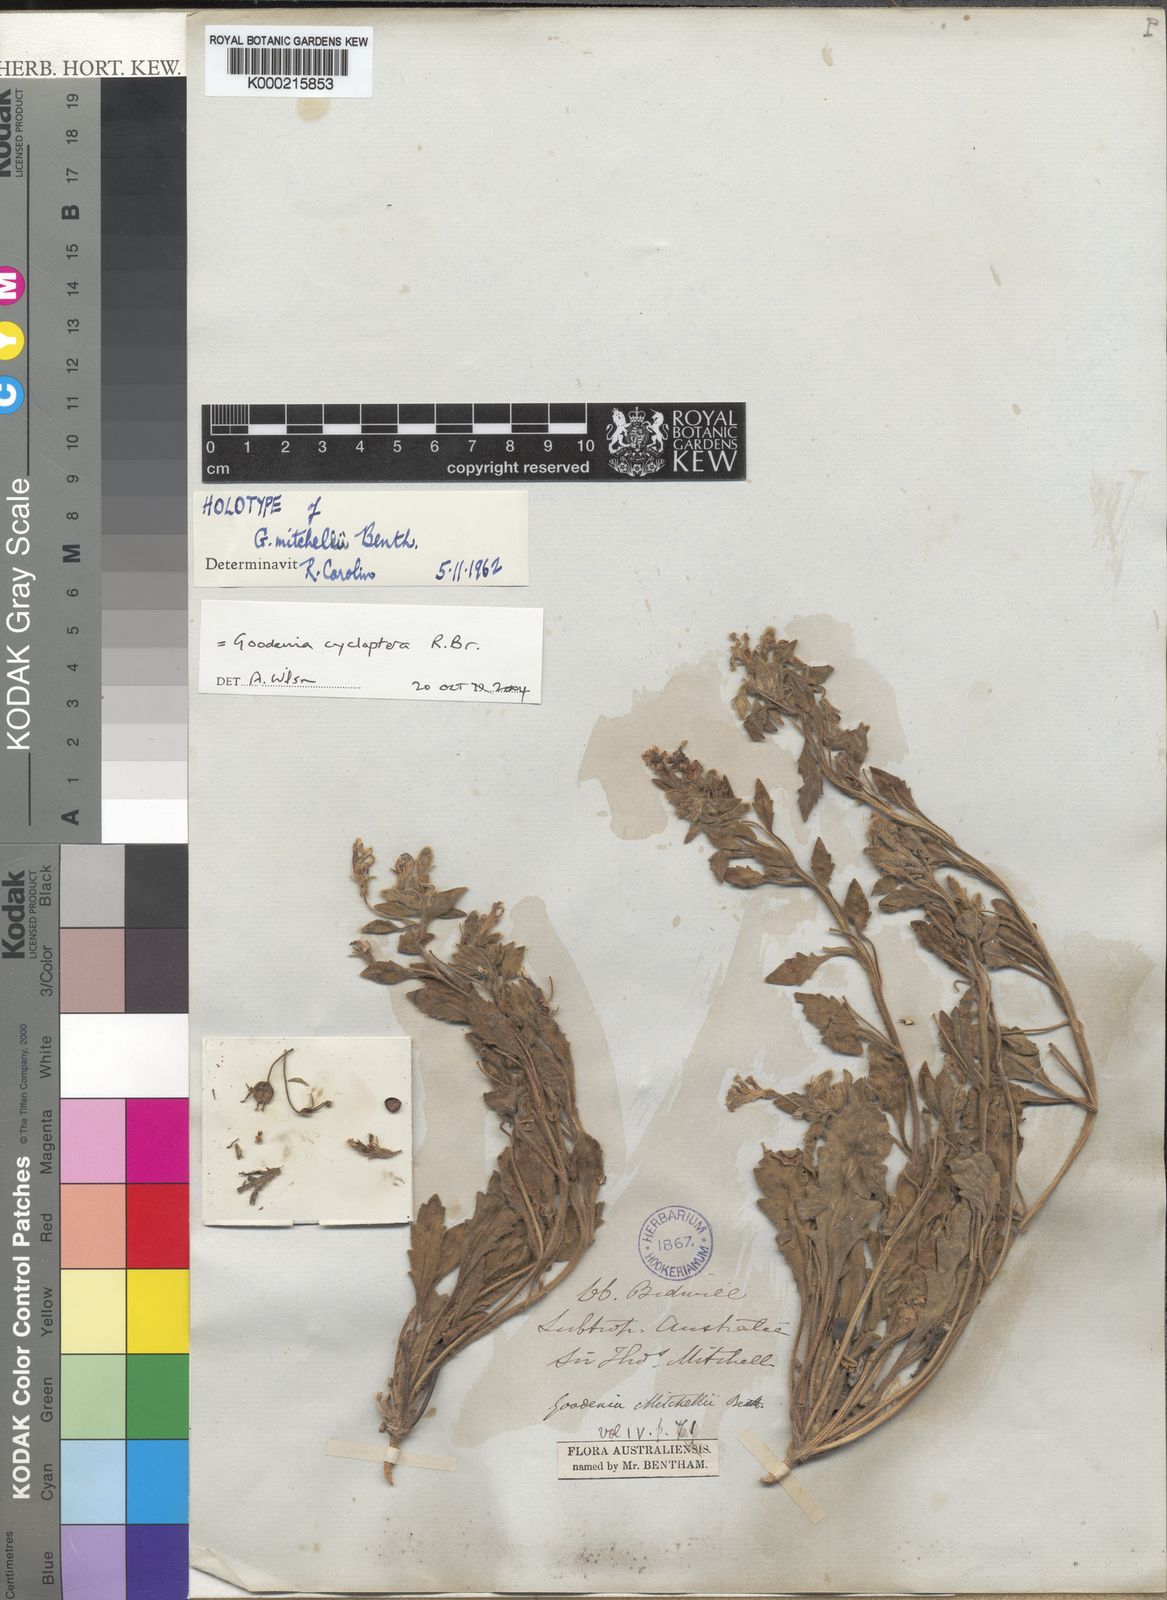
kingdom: Plantae
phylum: Tracheophyta
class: Magnoliopsida
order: Asterales
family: Goodeniaceae
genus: Goodenia
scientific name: Goodenia cycloptera
